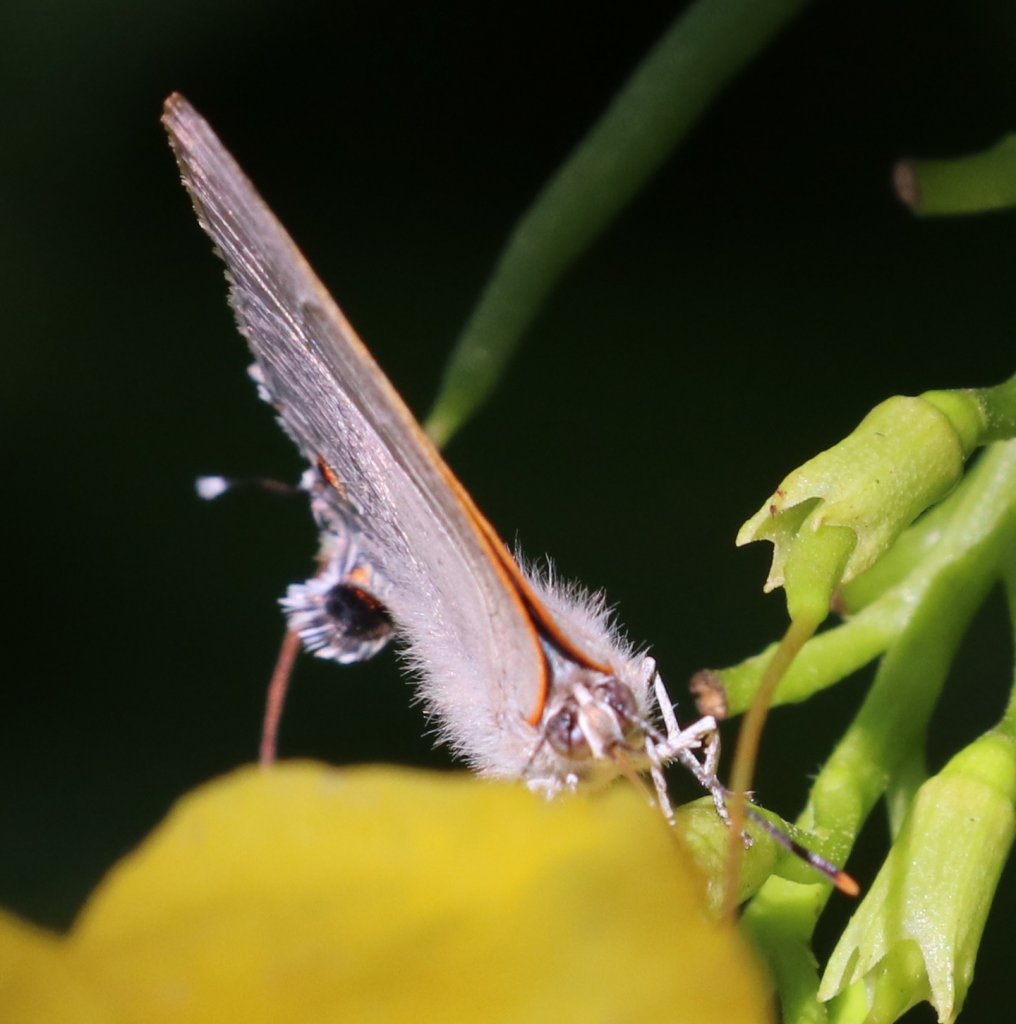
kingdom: Animalia
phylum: Arthropoda
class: Insecta
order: Lepidoptera
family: Lycaenidae
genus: Thecla
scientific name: Thecla marius
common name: Marius Hairstreak
